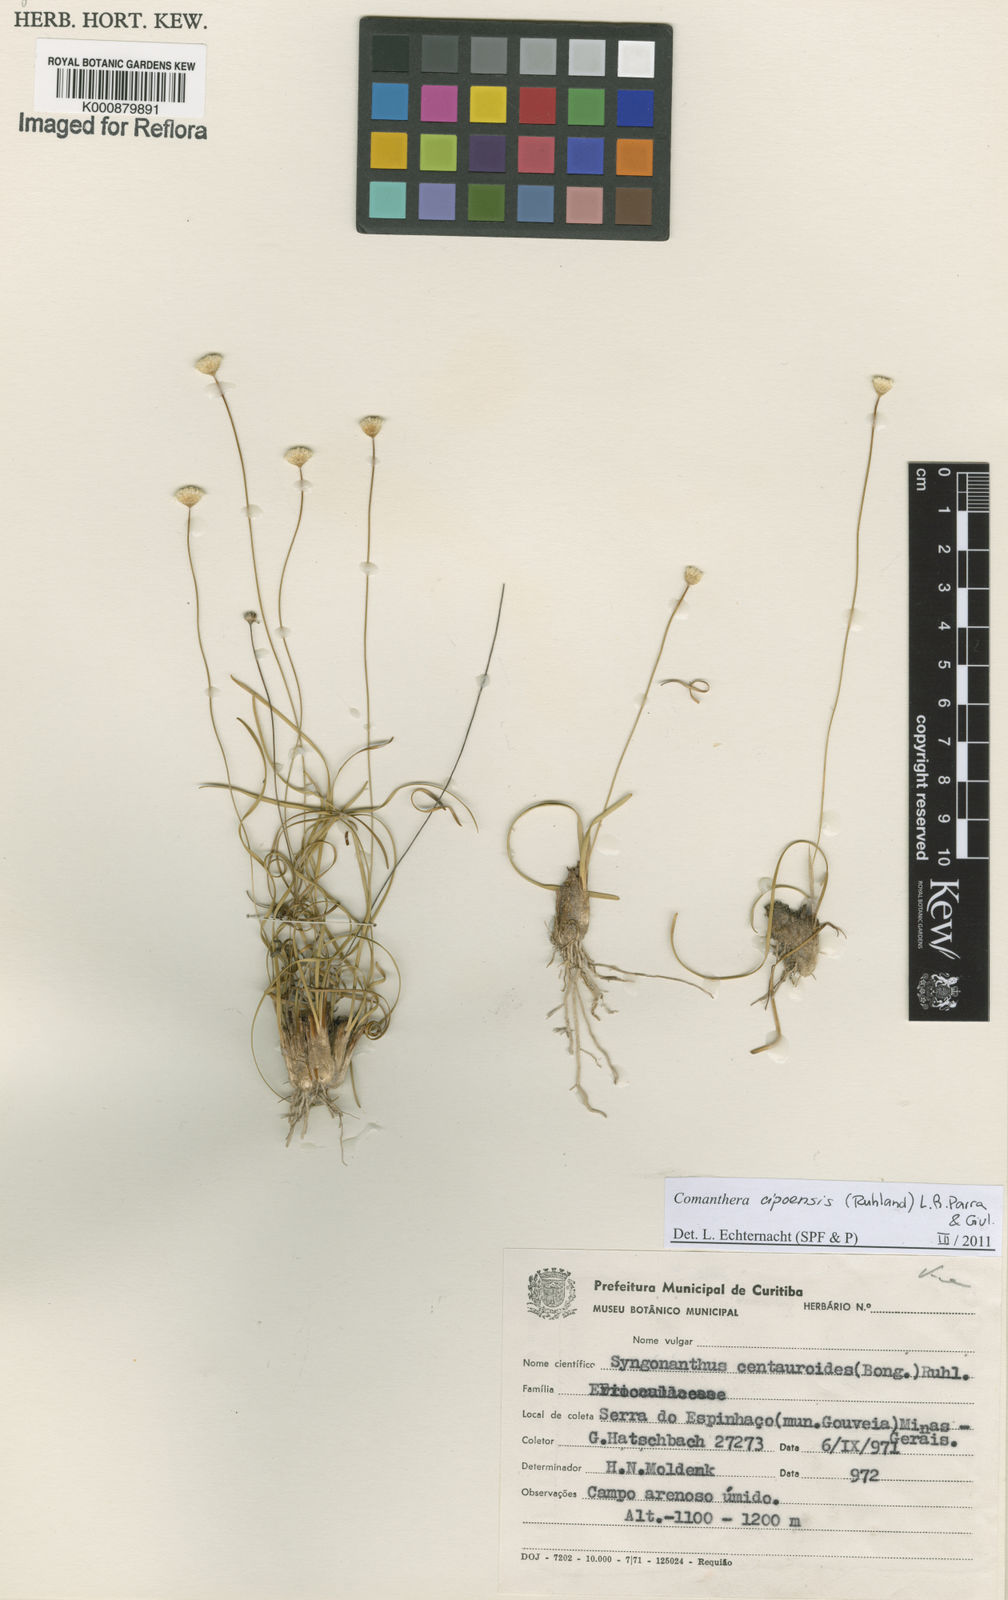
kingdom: Plantae
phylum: Tracheophyta
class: Liliopsida
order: Poales
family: Eriocaulaceae
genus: Comanthera
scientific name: Comanthera cipoensis
